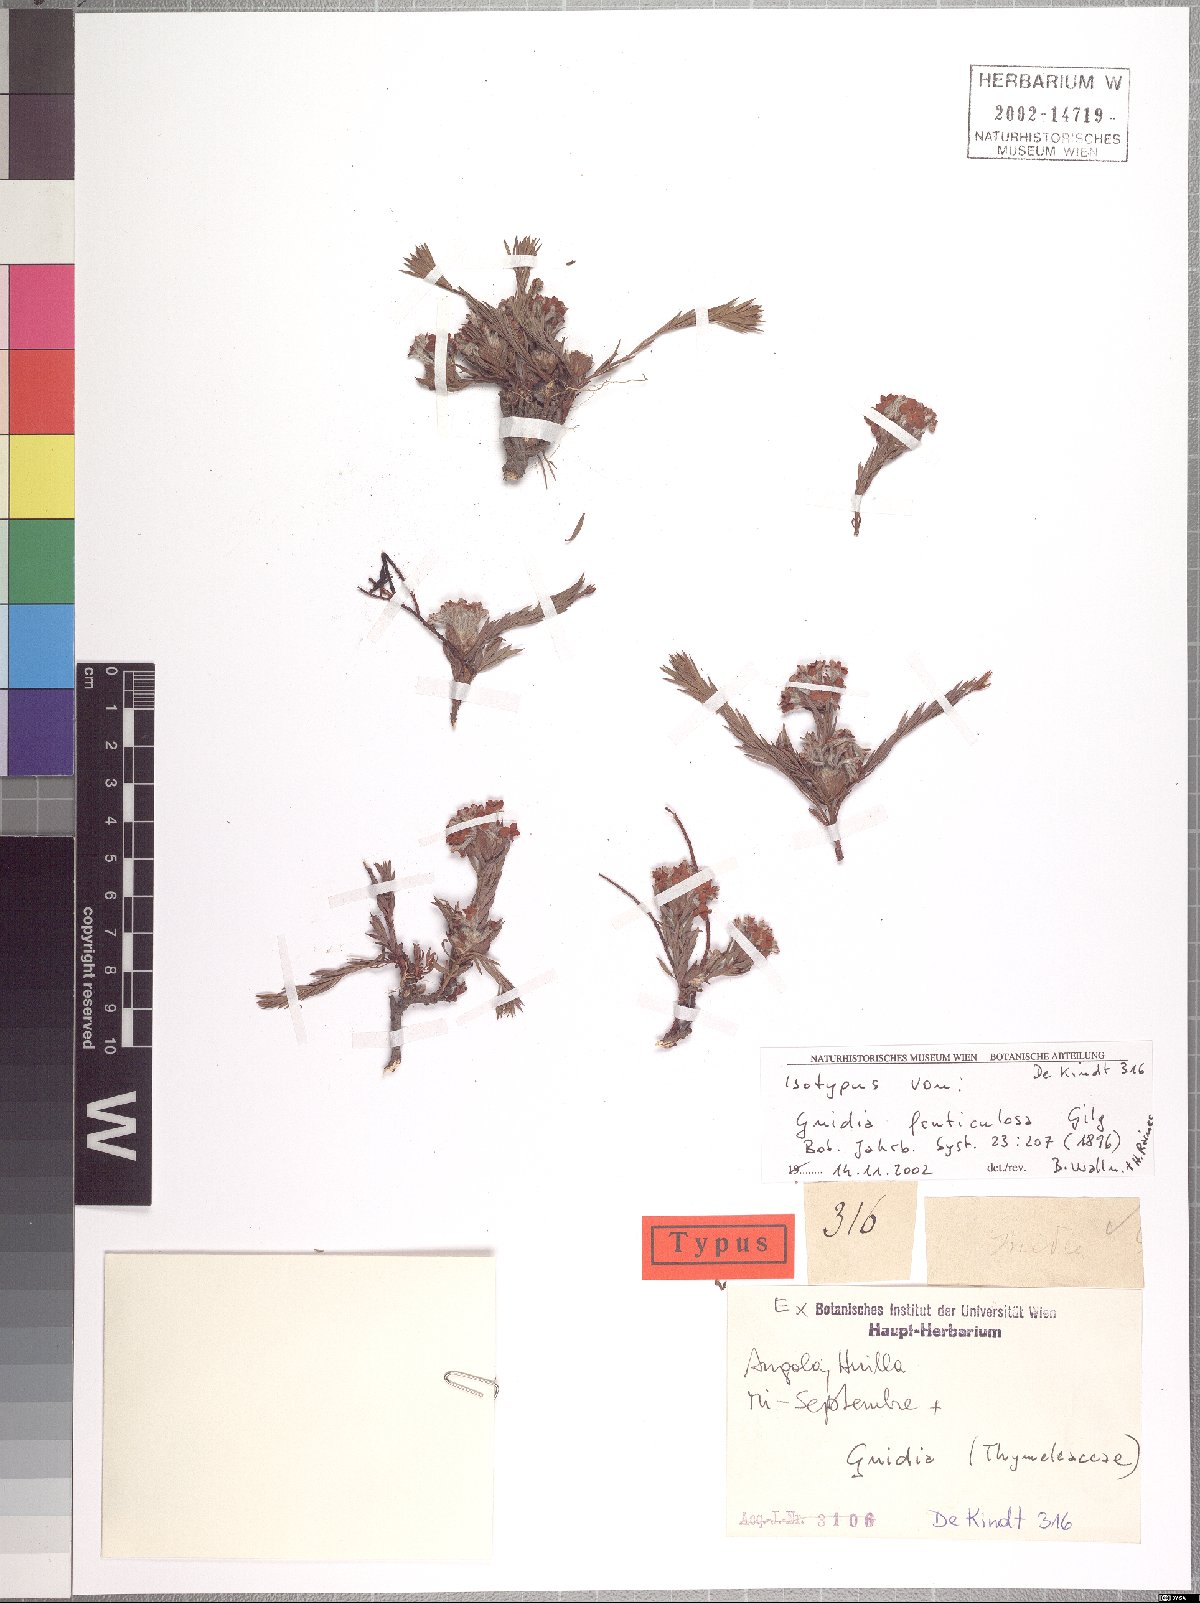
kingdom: Plantae
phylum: Tracheophyta
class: Magnoliopsida
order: Malvales
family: Thymelaeaceae
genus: Gnidia
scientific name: Gnidia fruticulosa
